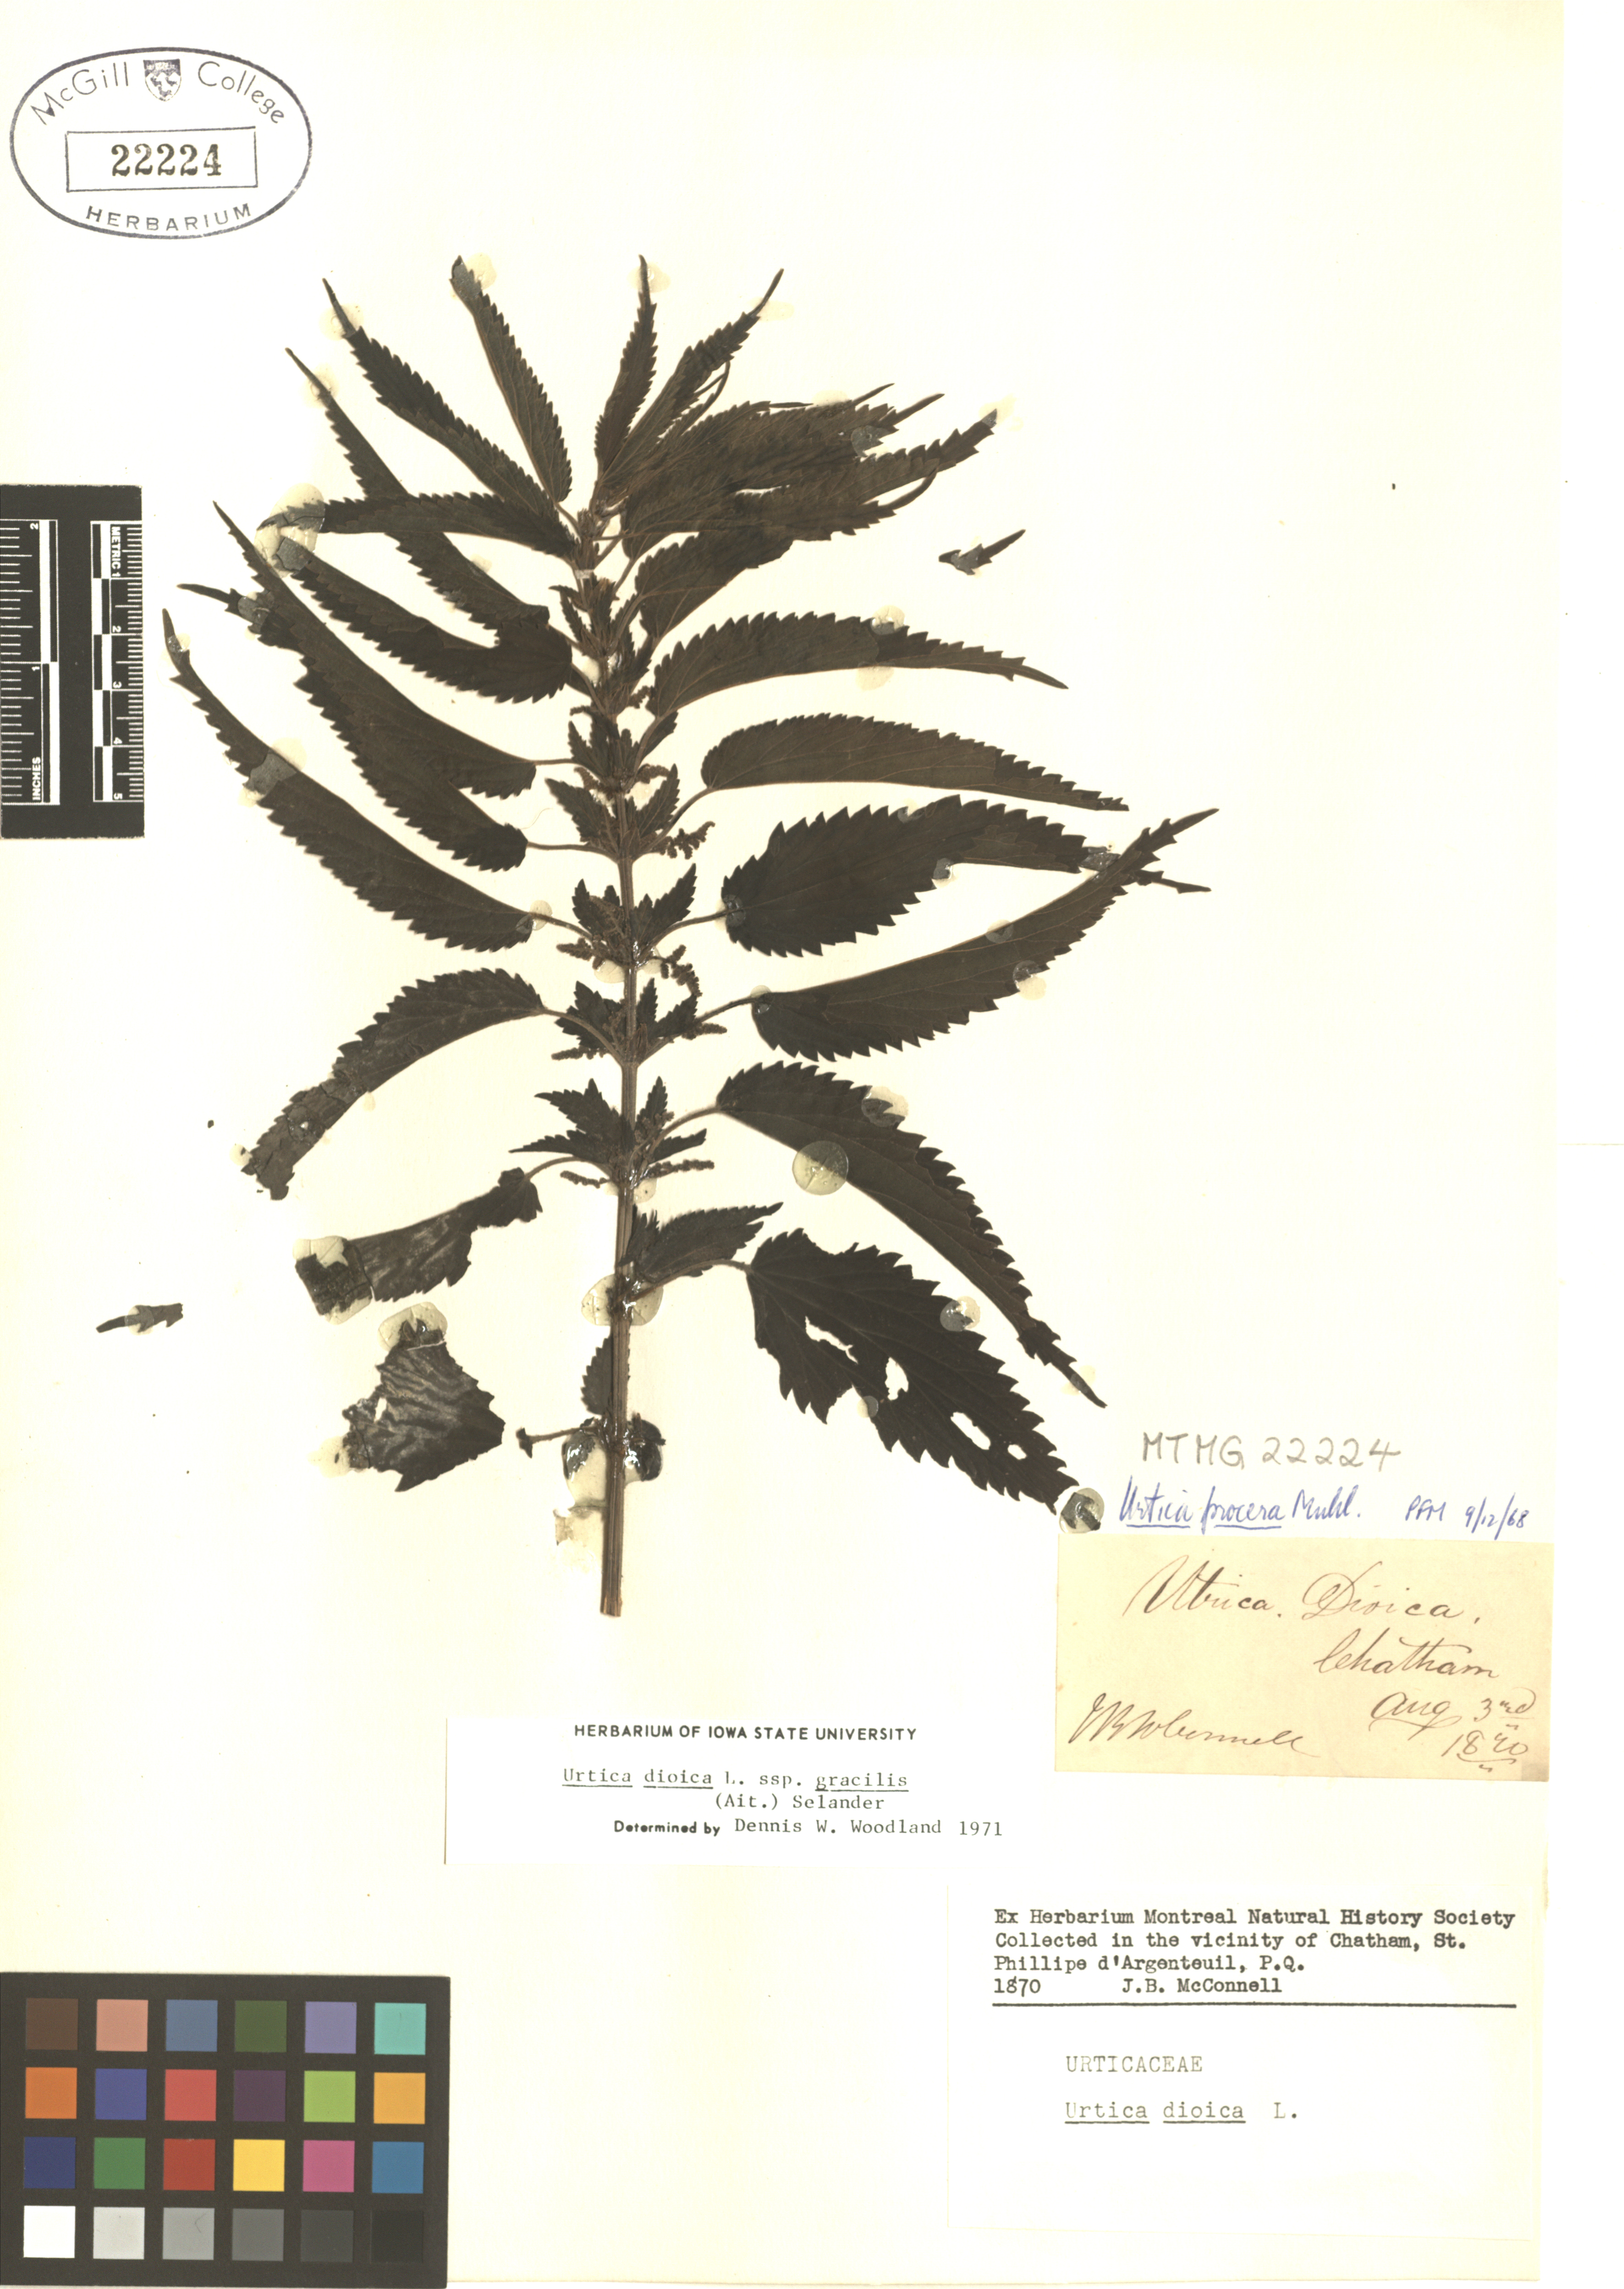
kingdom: Plantae
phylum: Tracheophyta
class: Magnoliopsida
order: Rosales
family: Urticaceae
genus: Urtica
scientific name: Urtica gracilis
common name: Slender stinging nettle
